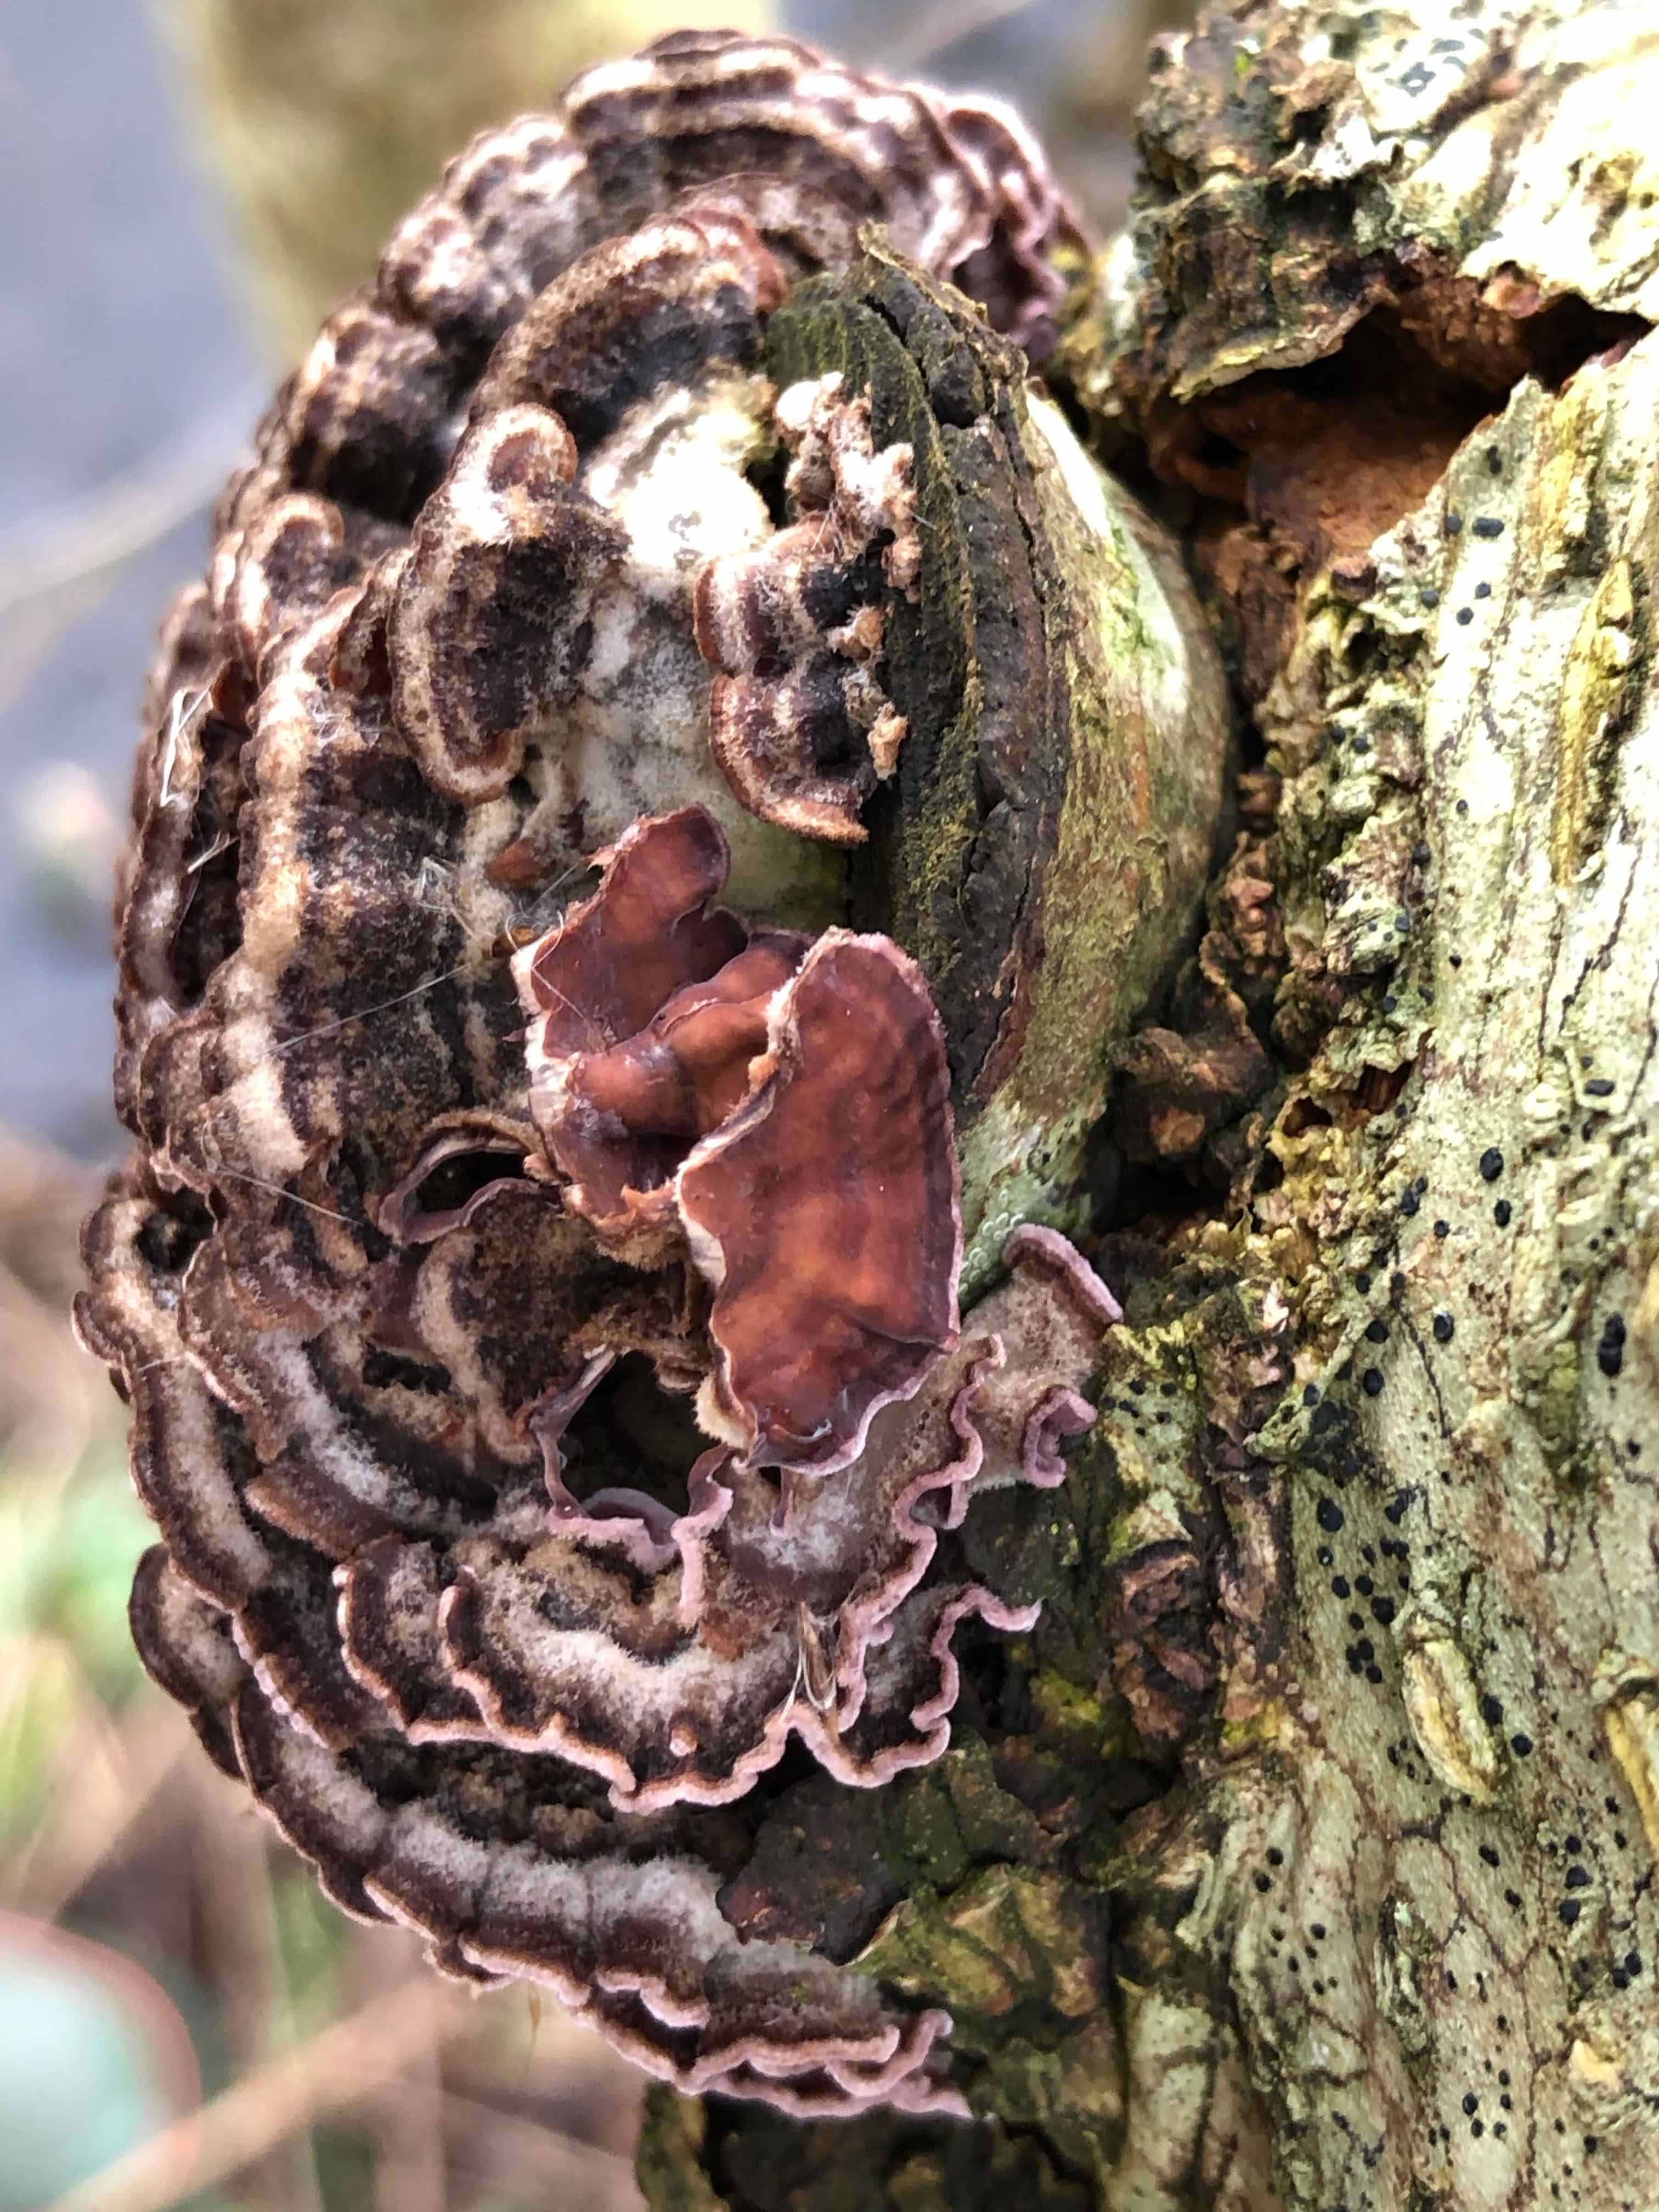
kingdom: Fungi
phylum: Basidiomycota
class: Agaricomycetes
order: Agaricales
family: Cyphellaceae
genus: Chondrostereum
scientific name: Chondrostereum purpureum
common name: purpurlædersvamp
